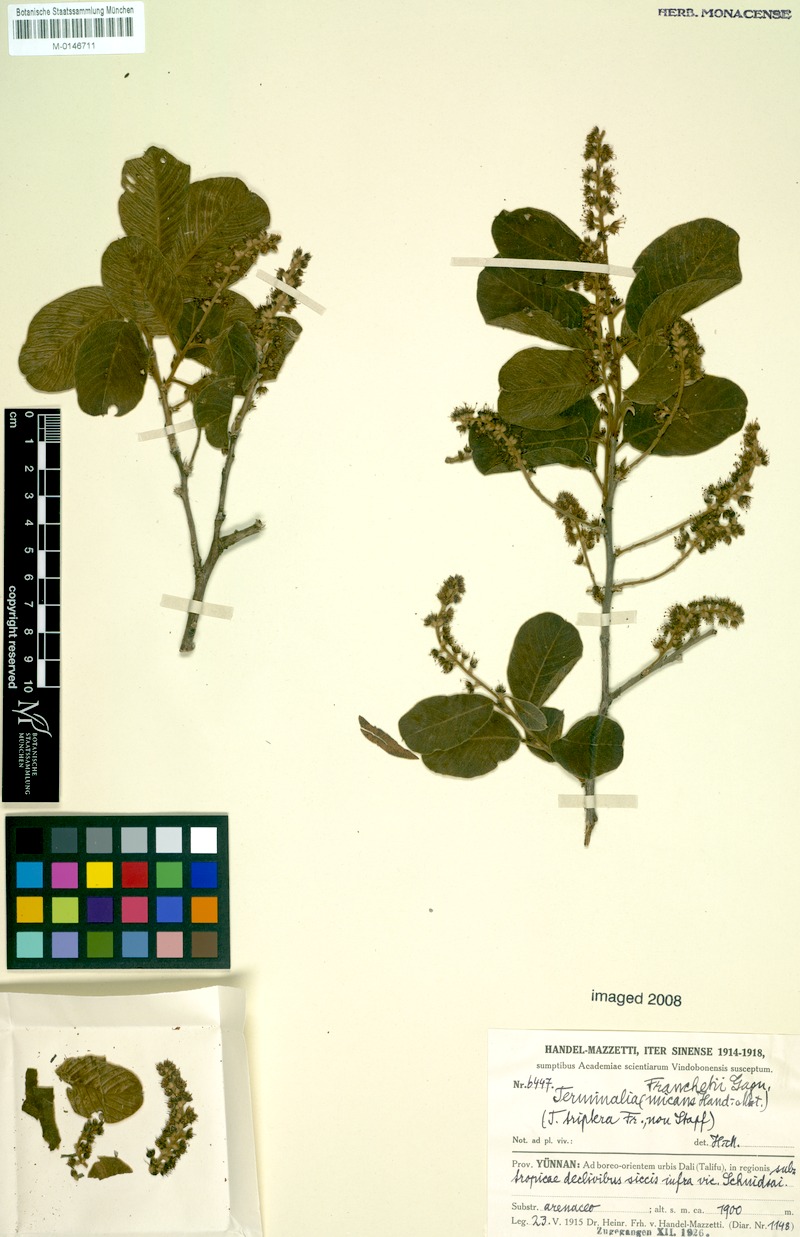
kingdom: Plantae
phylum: Tracheophyta
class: Magnoliopsida
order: Myrtales
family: Combretaceae
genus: Terminalia
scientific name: Terminalia franchetii
